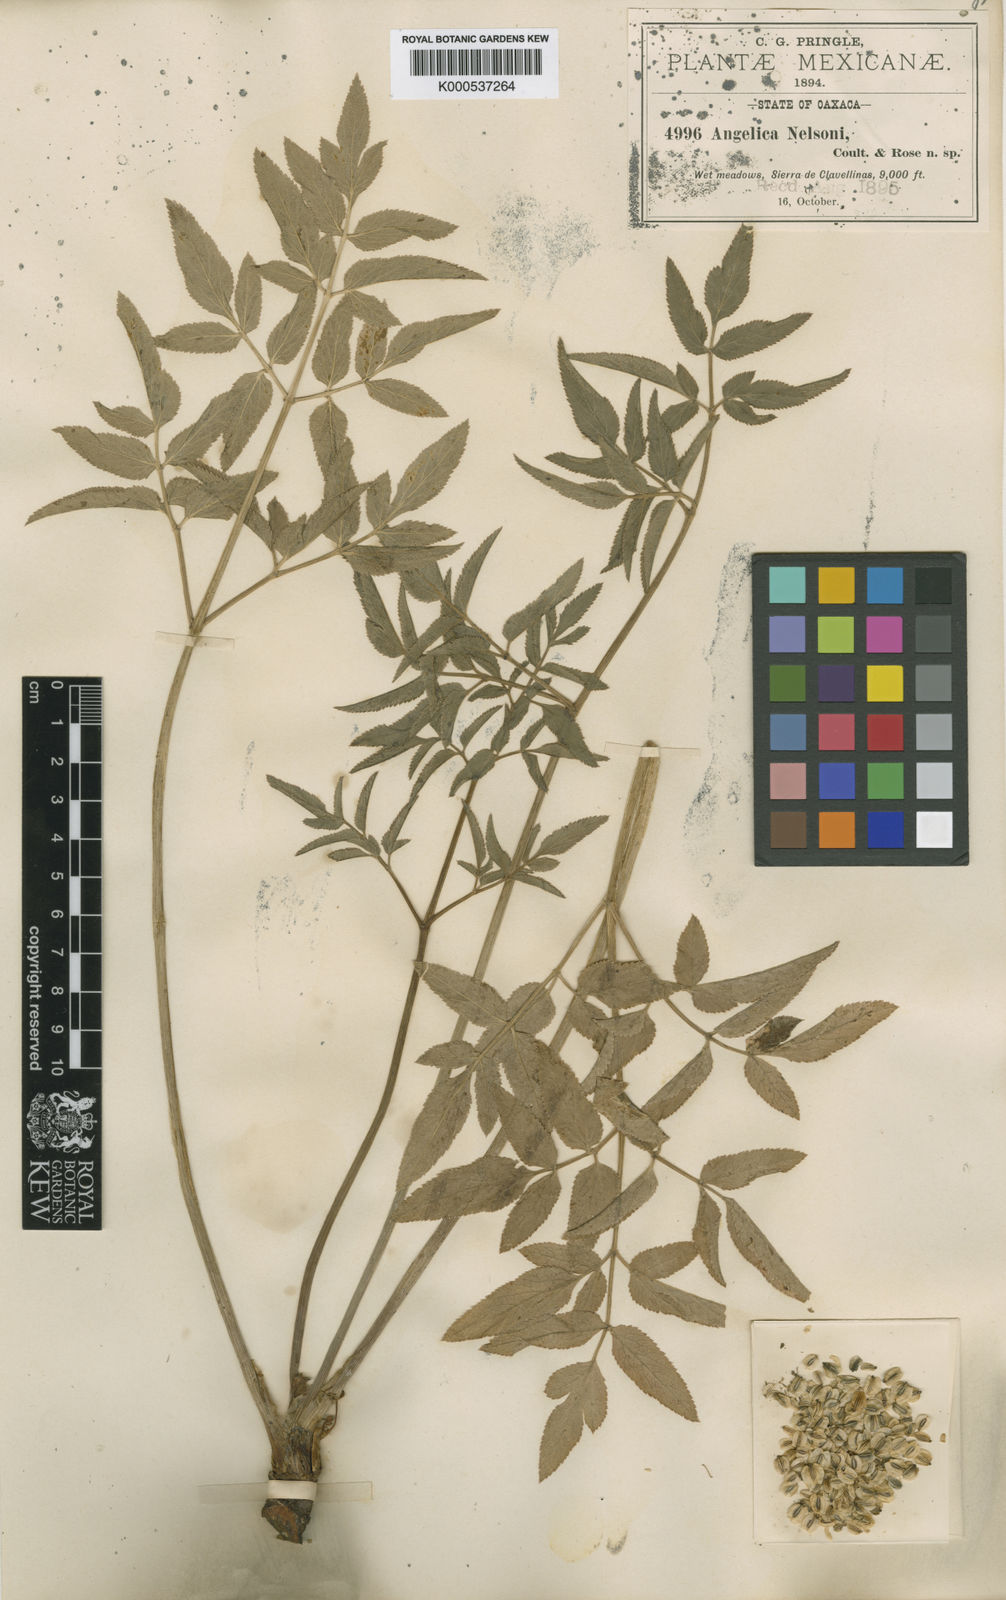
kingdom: Plantae
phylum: Tracheophyta
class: Magnoliopsida
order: Apiales
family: Apiaceae
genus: Angelica
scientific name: Angelica nelsonii
